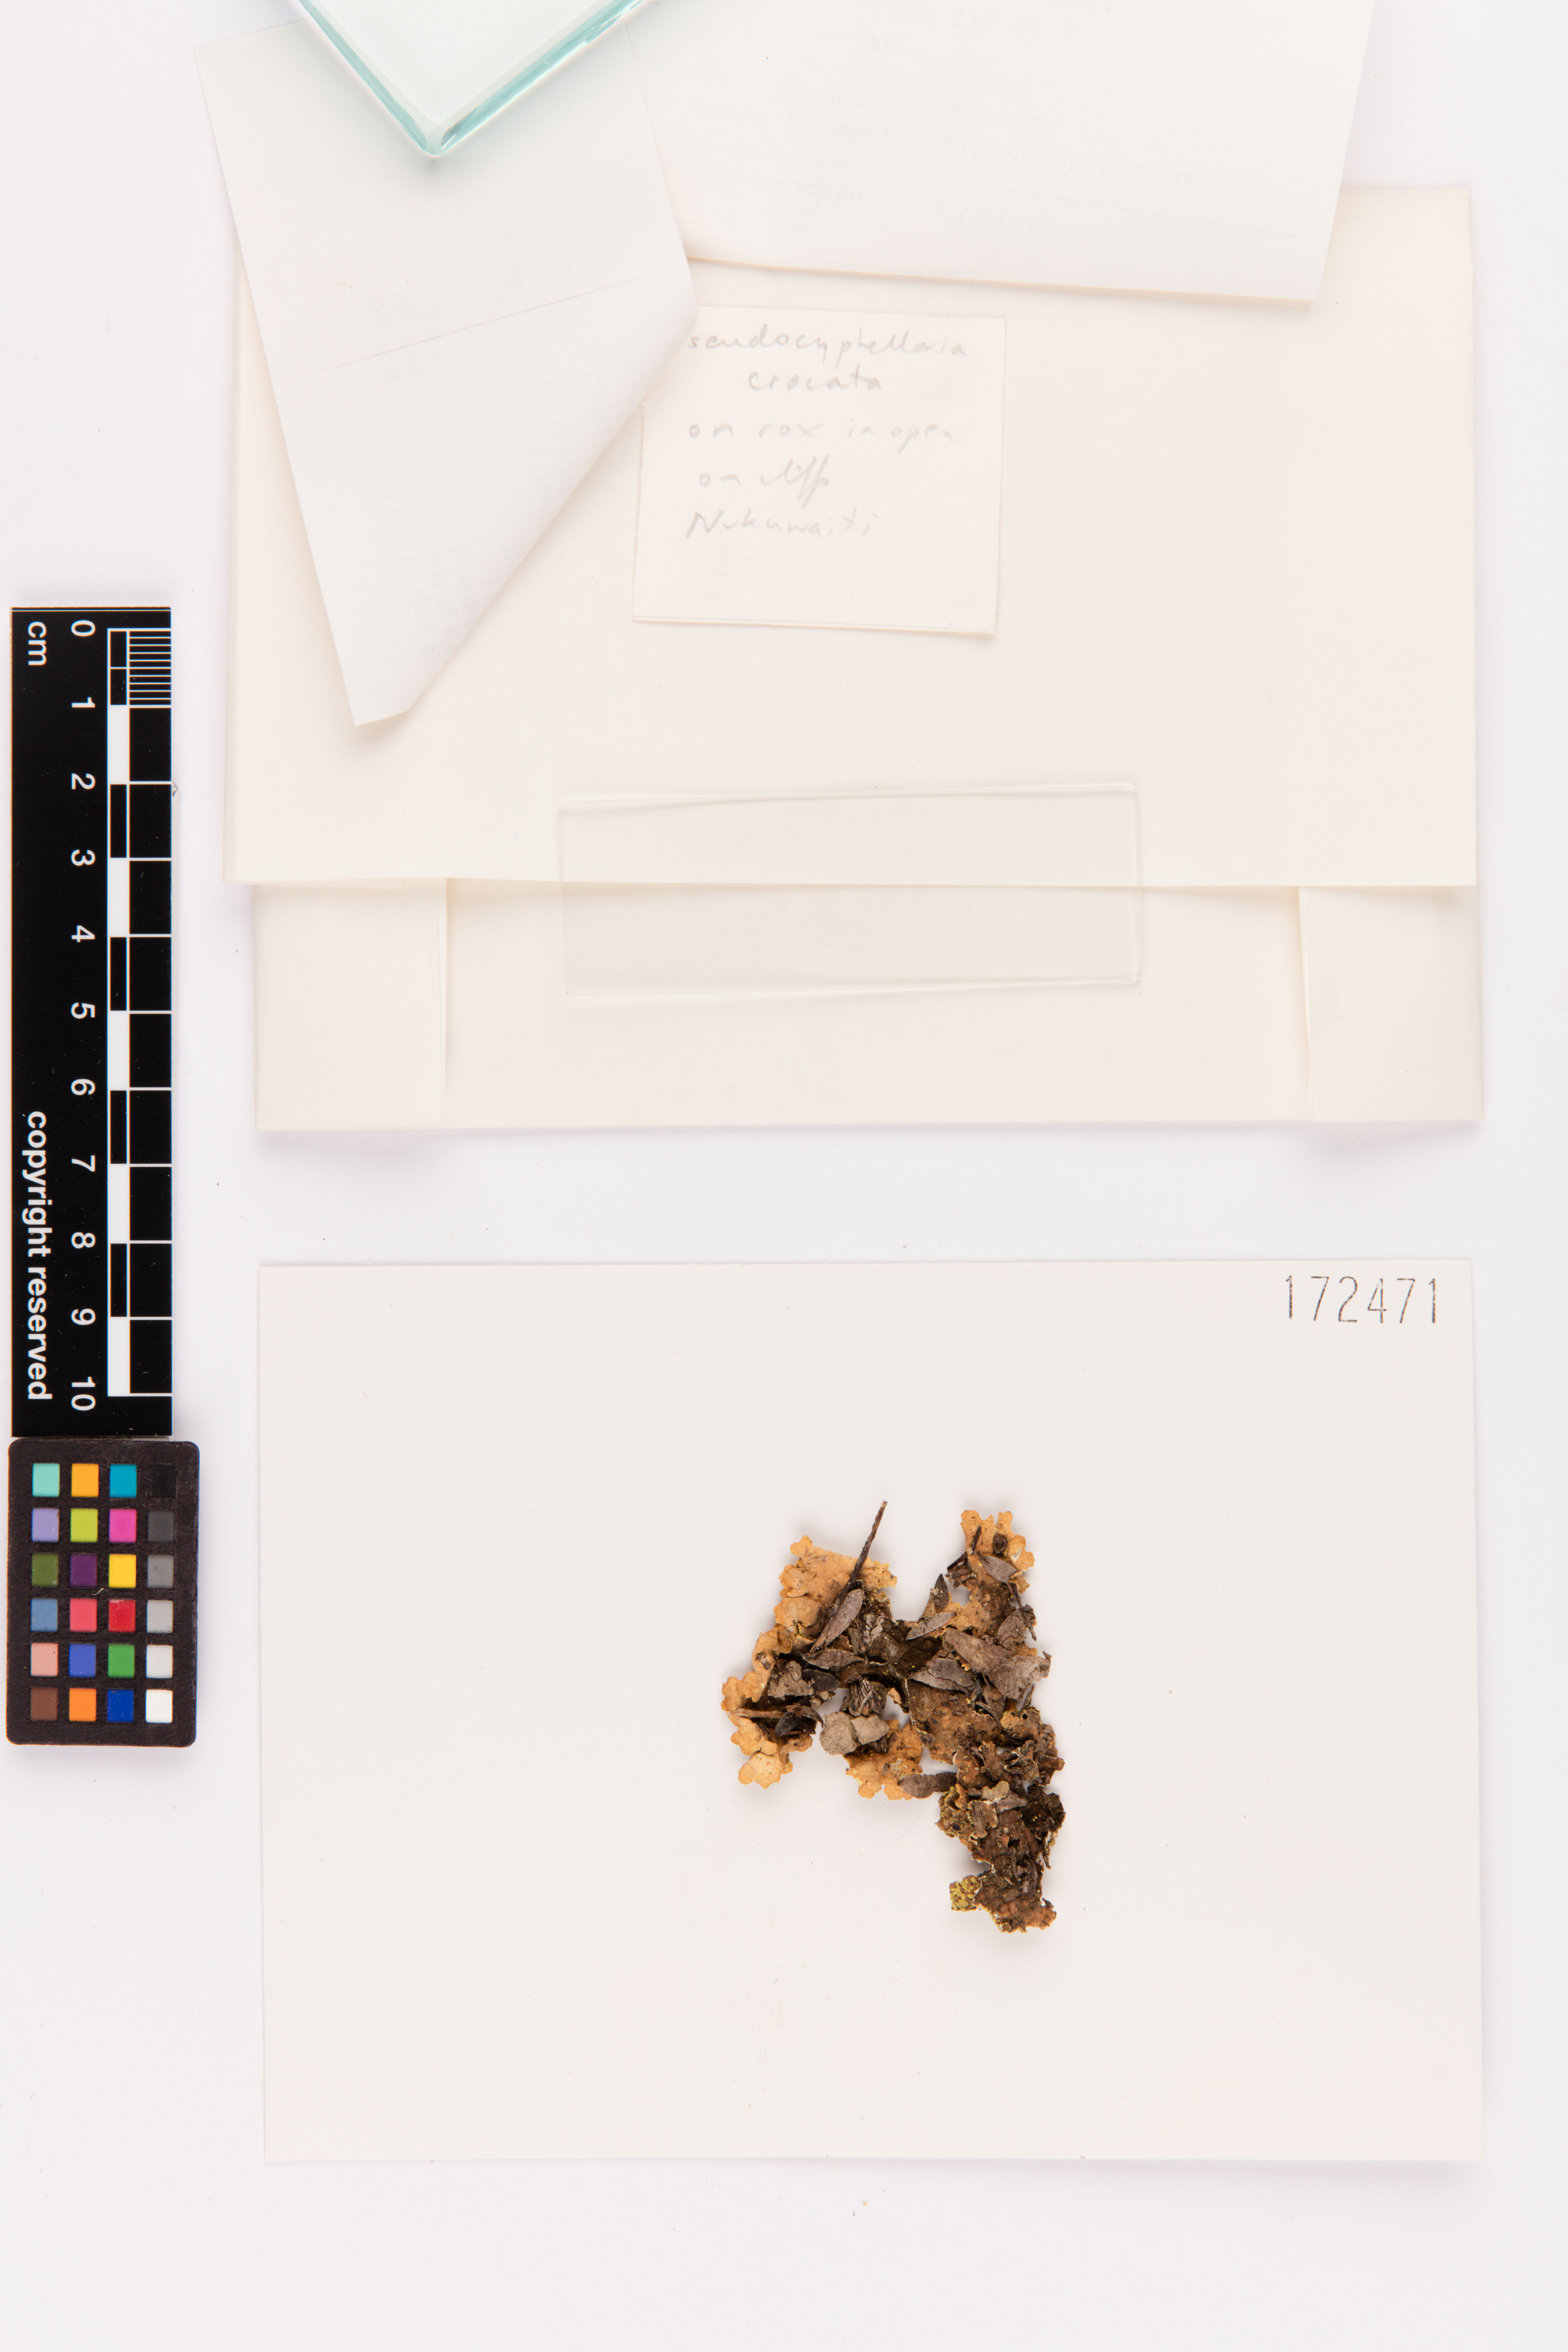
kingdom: Fungi
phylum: Ascomycota
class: Lecanoromycetes
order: Peltigerales
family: Lobariaceae
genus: Pseudocyphellaria
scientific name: Pseudocyphellaria crocata
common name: Golden specklebelly
